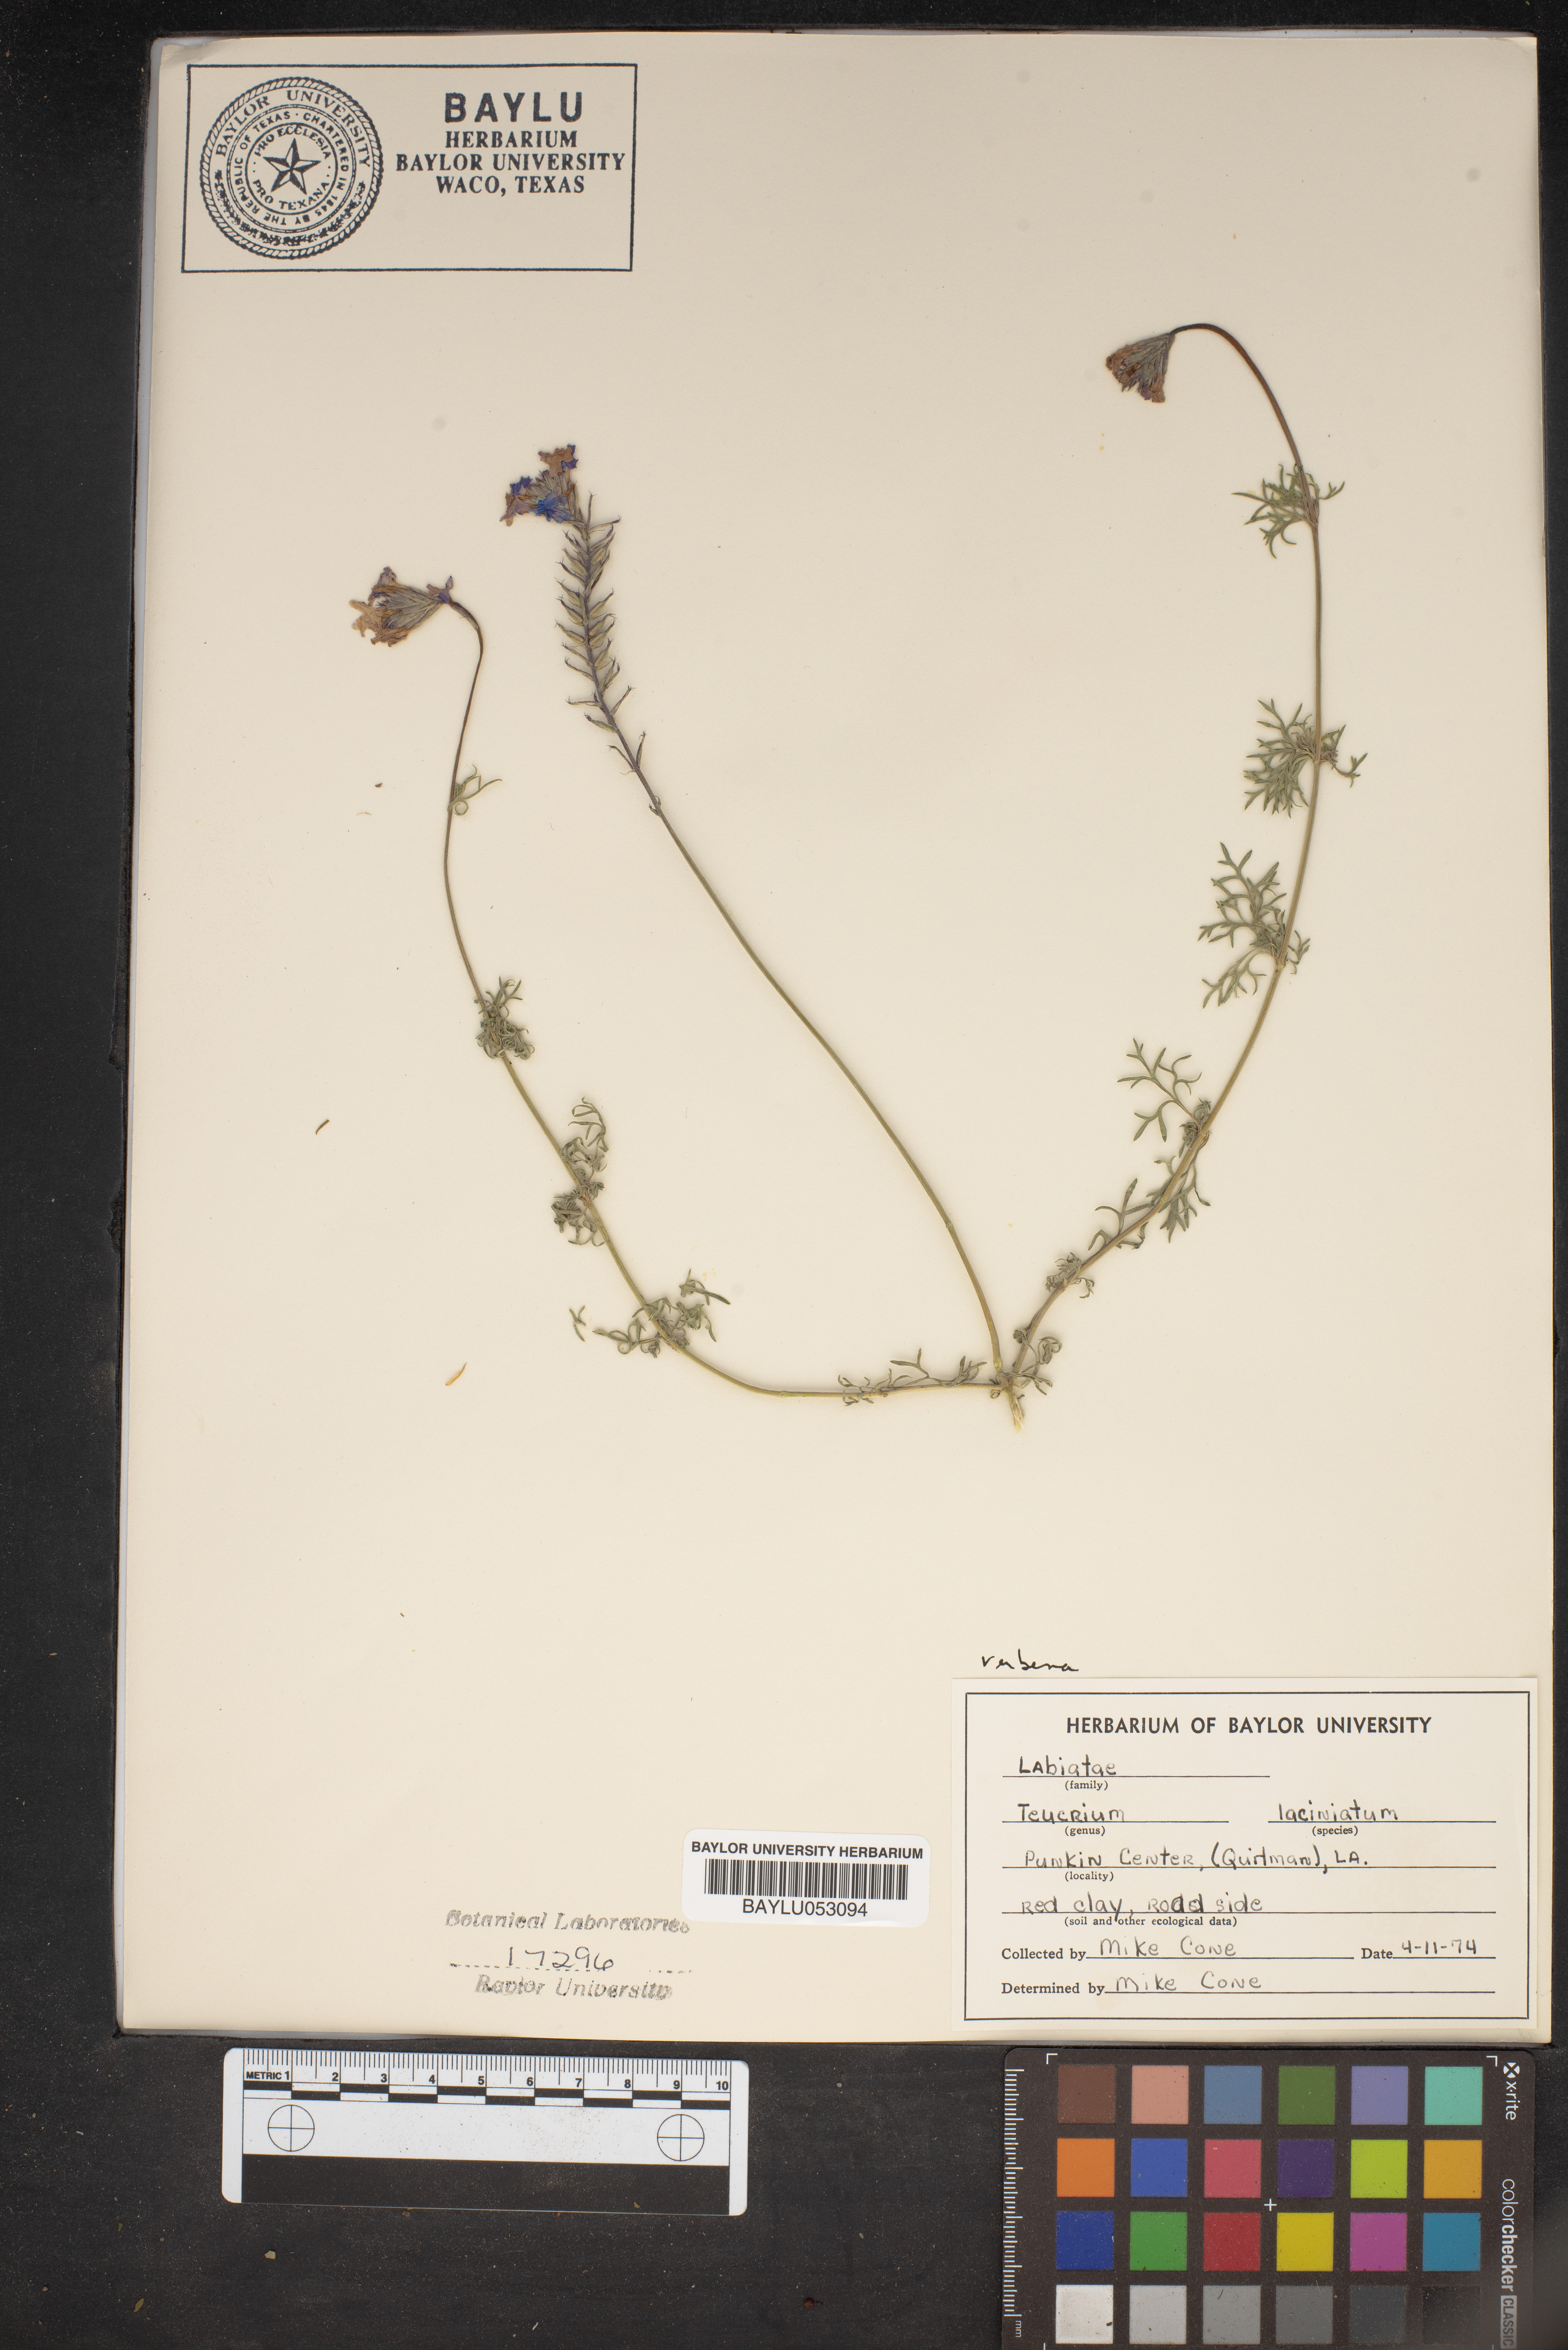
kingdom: Plantae
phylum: Tracheophyta
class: Magnoliopsida
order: Lamiales
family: Lamiaceae
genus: Teucrium
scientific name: Teucrium laciniatum
